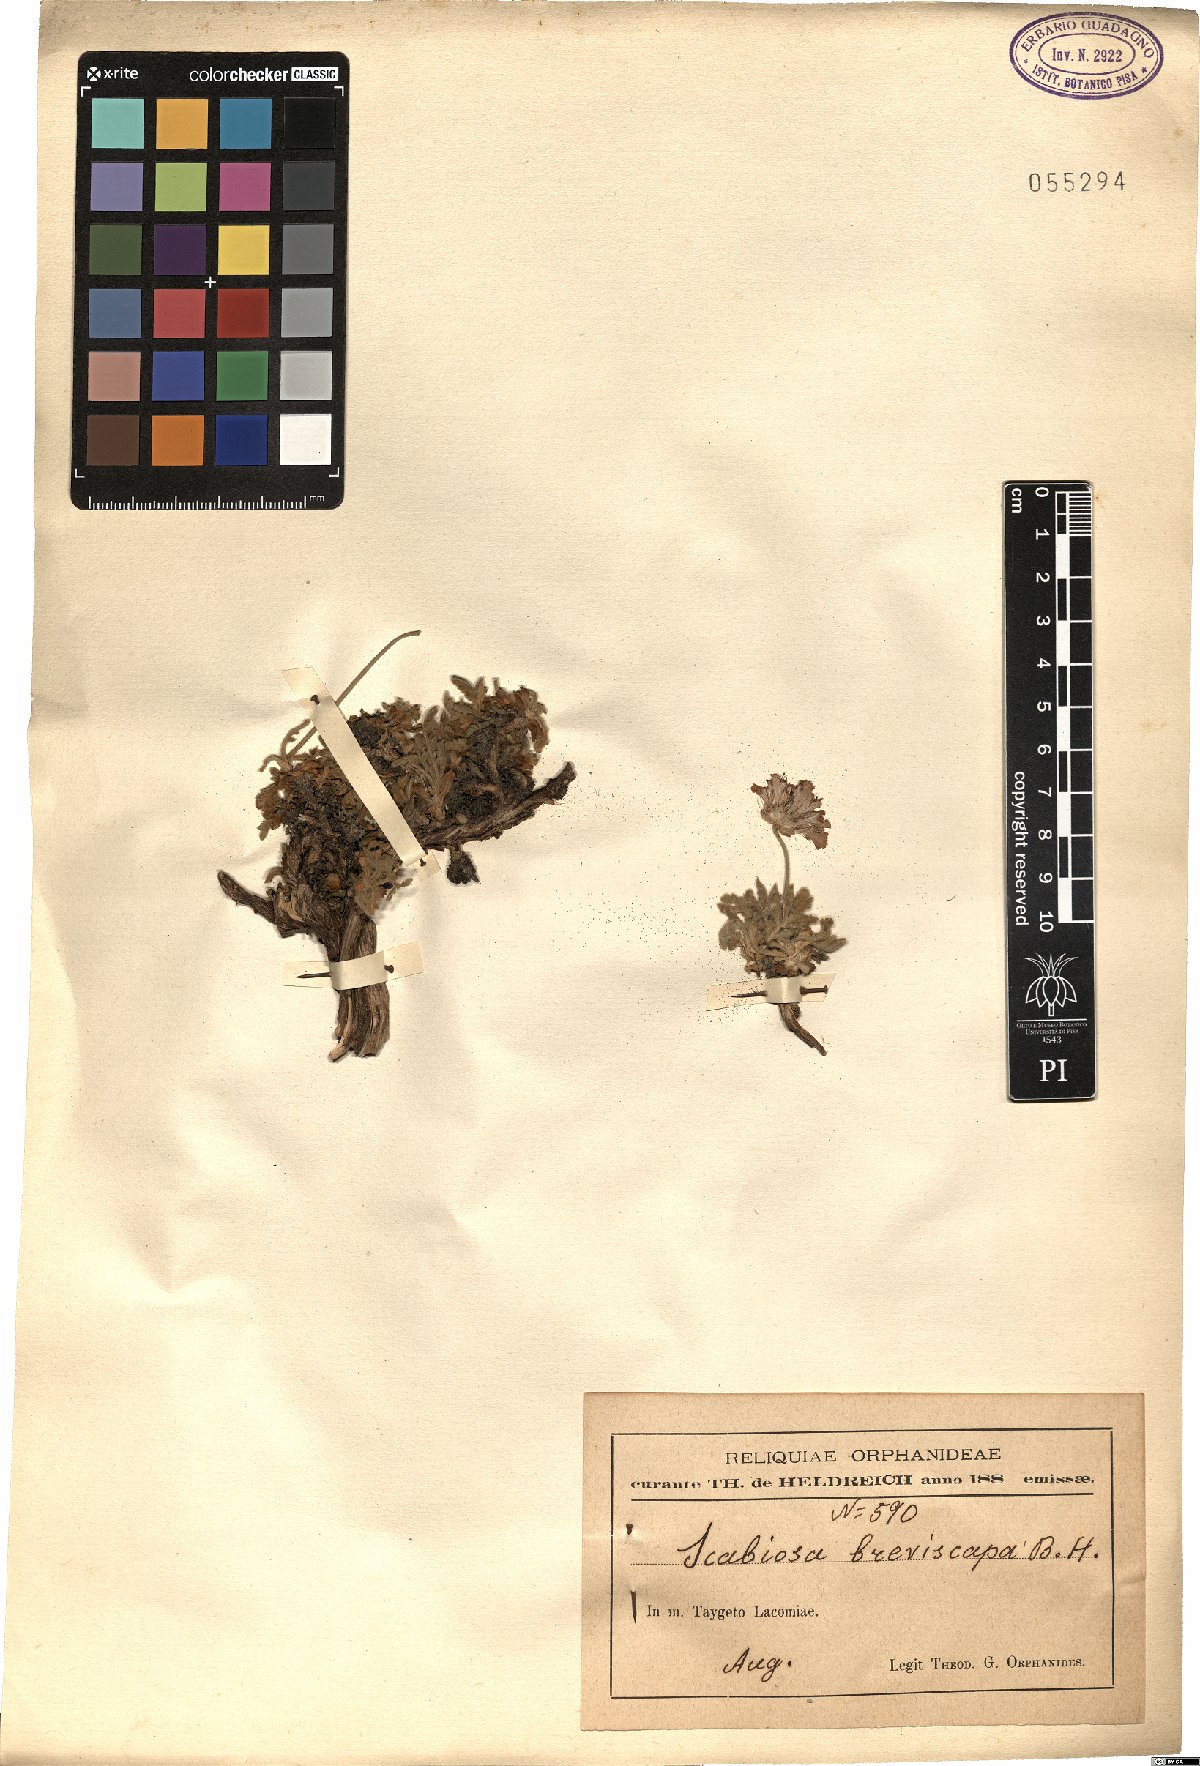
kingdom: Plantae
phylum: Tracheophyta
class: Magnoliopsida
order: Dipsacales
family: Caprifoliaceae
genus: Lomelosia
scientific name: Lomelosia crenata
